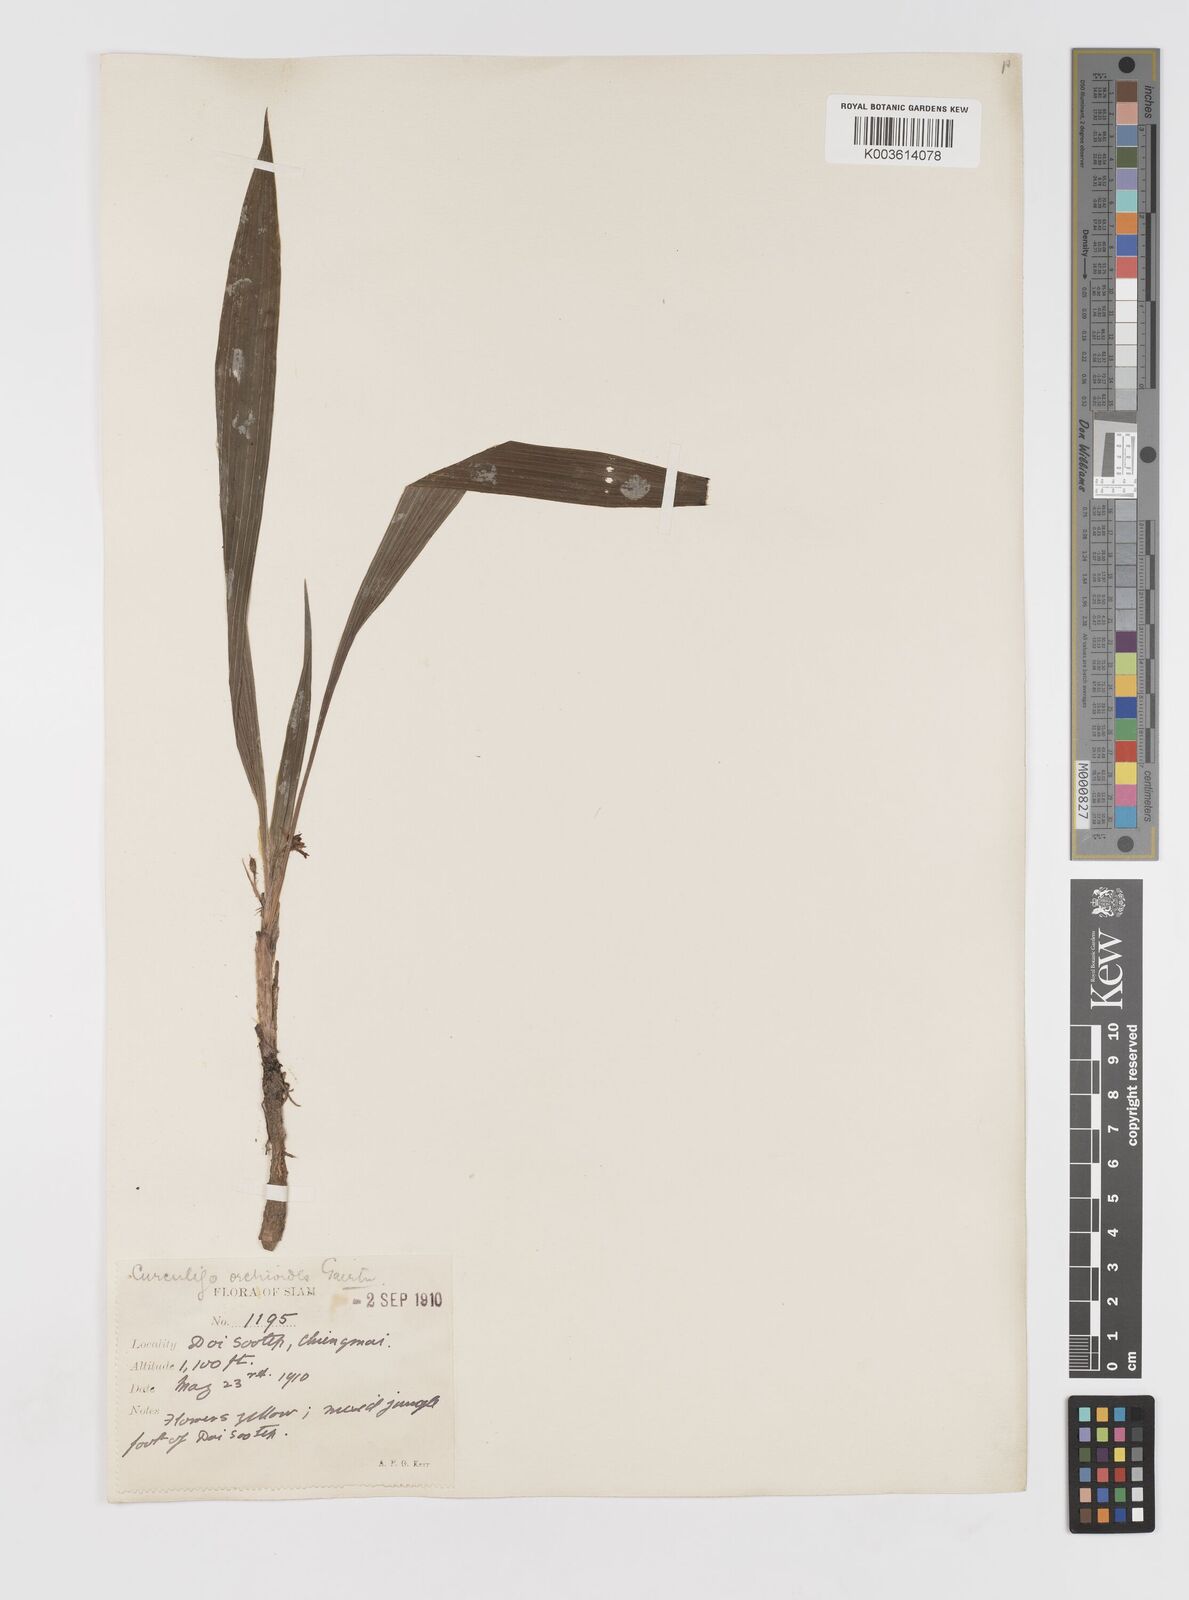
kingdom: Plantae
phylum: Tracheophyta
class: Liliopsida
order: Asparagales
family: Hypoxidaceae
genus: Curculigo
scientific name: Curculigo orchioides
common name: Golden eye-grass
